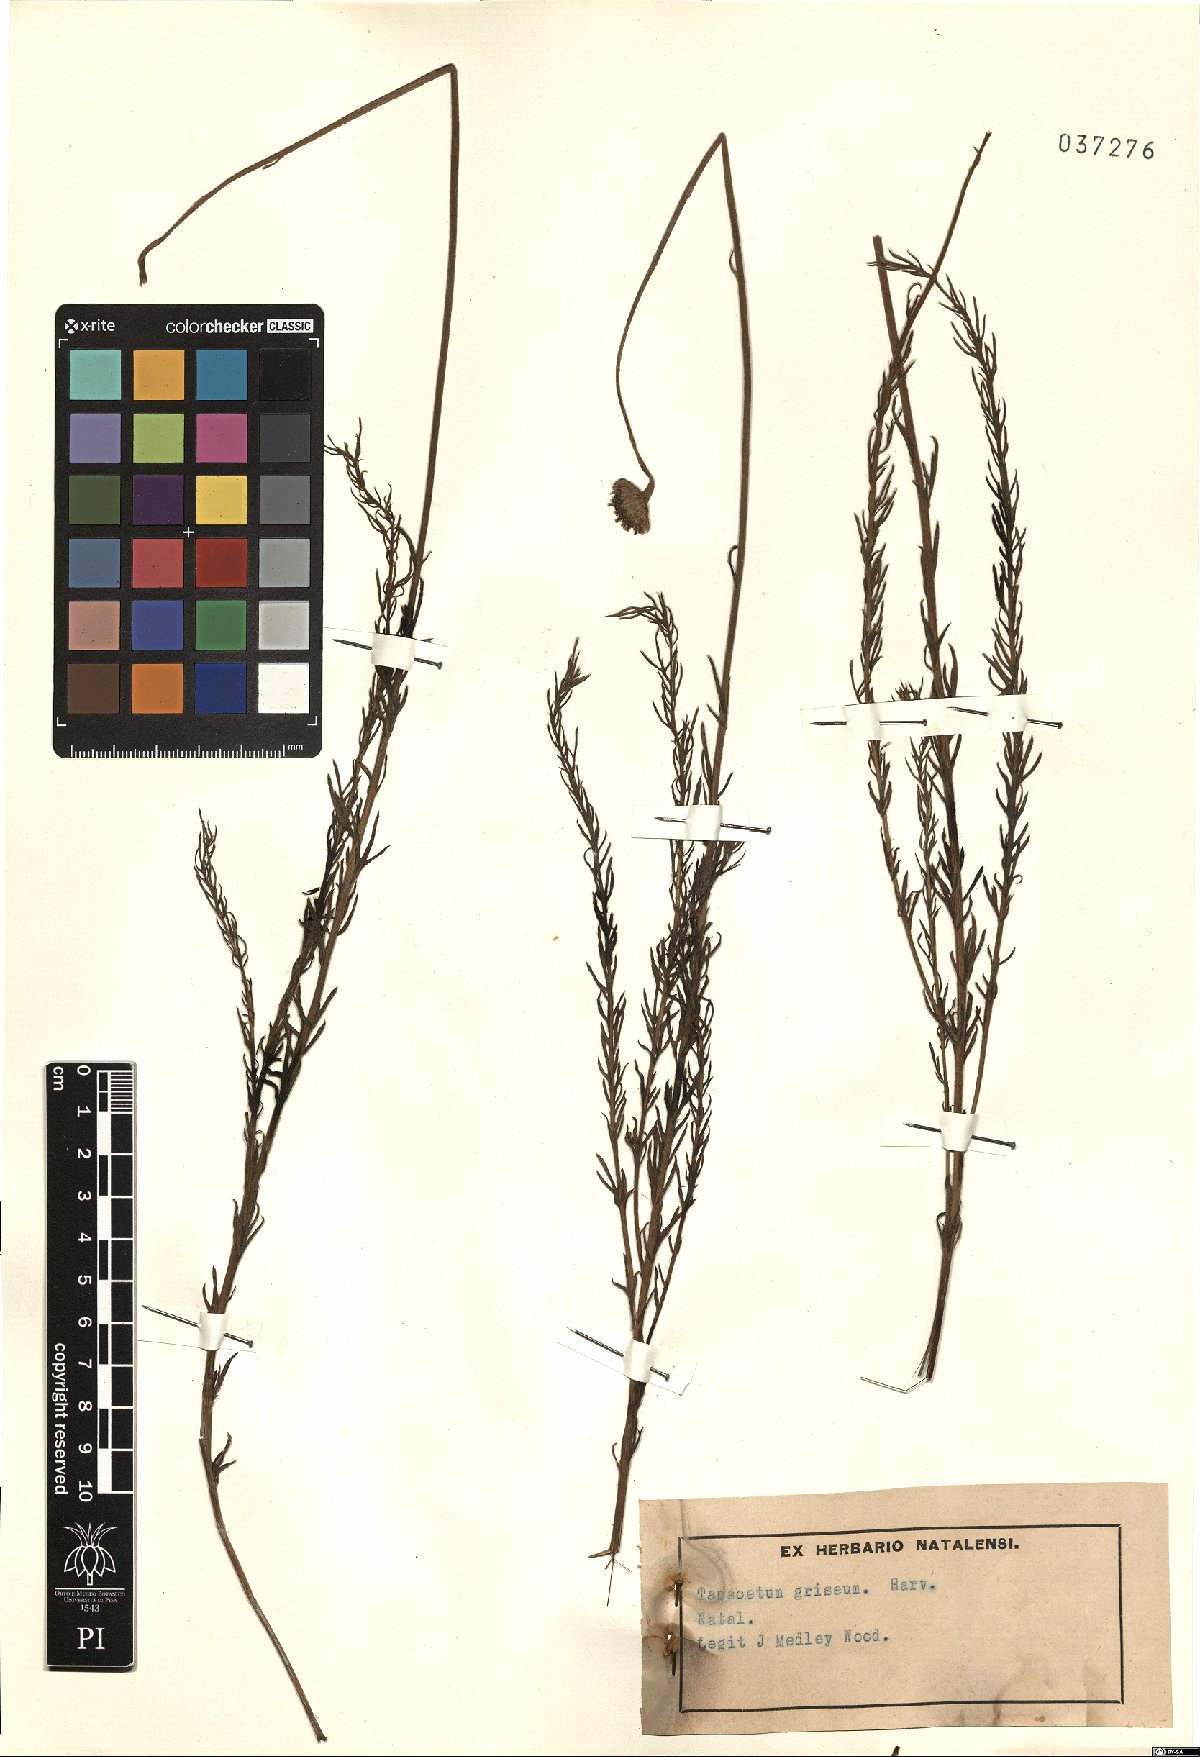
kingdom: Plantae
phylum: Tracheophyta
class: Magnoliopsida
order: Asterales
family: Asteraceae
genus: Schistostephium
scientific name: Schistostephium griseum
